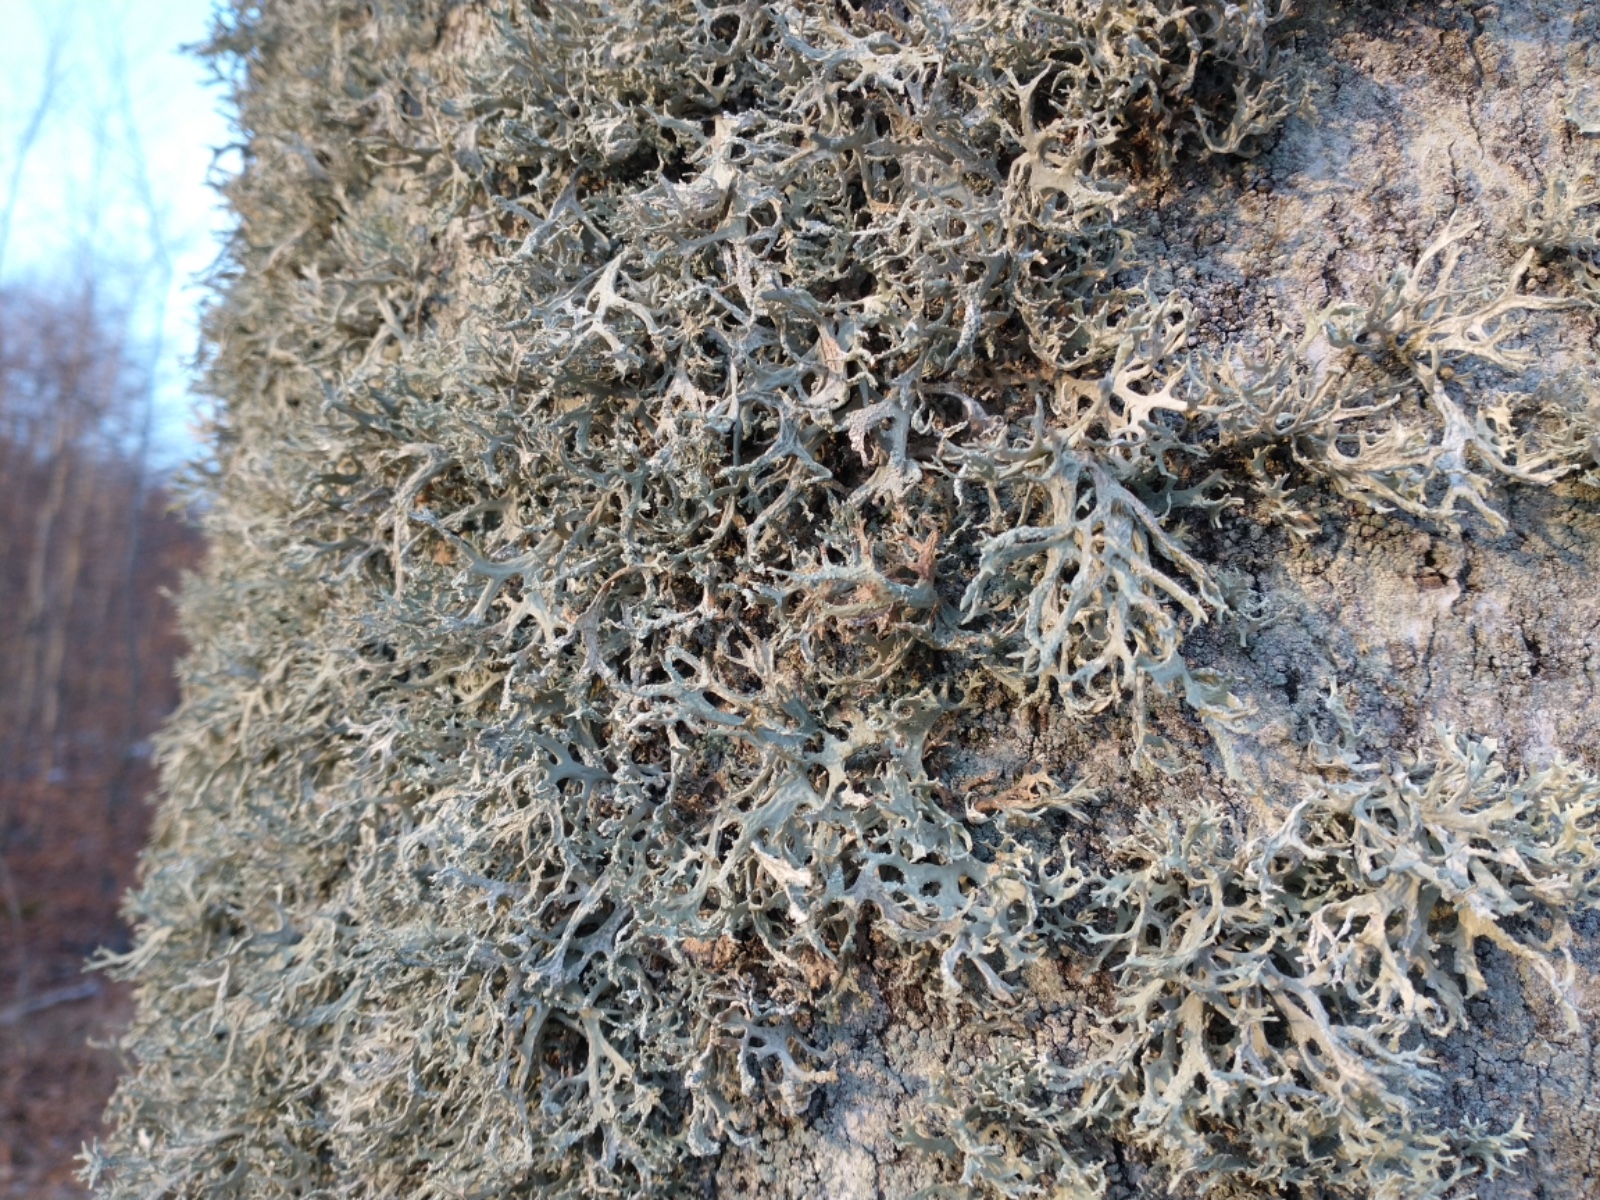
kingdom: Fungi
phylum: Ascomycota
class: Lecanoromycetes
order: Lecanorales
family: Parmeliaceae
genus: Evernia
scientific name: Evernia prunastri
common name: almindelig slåenlav
